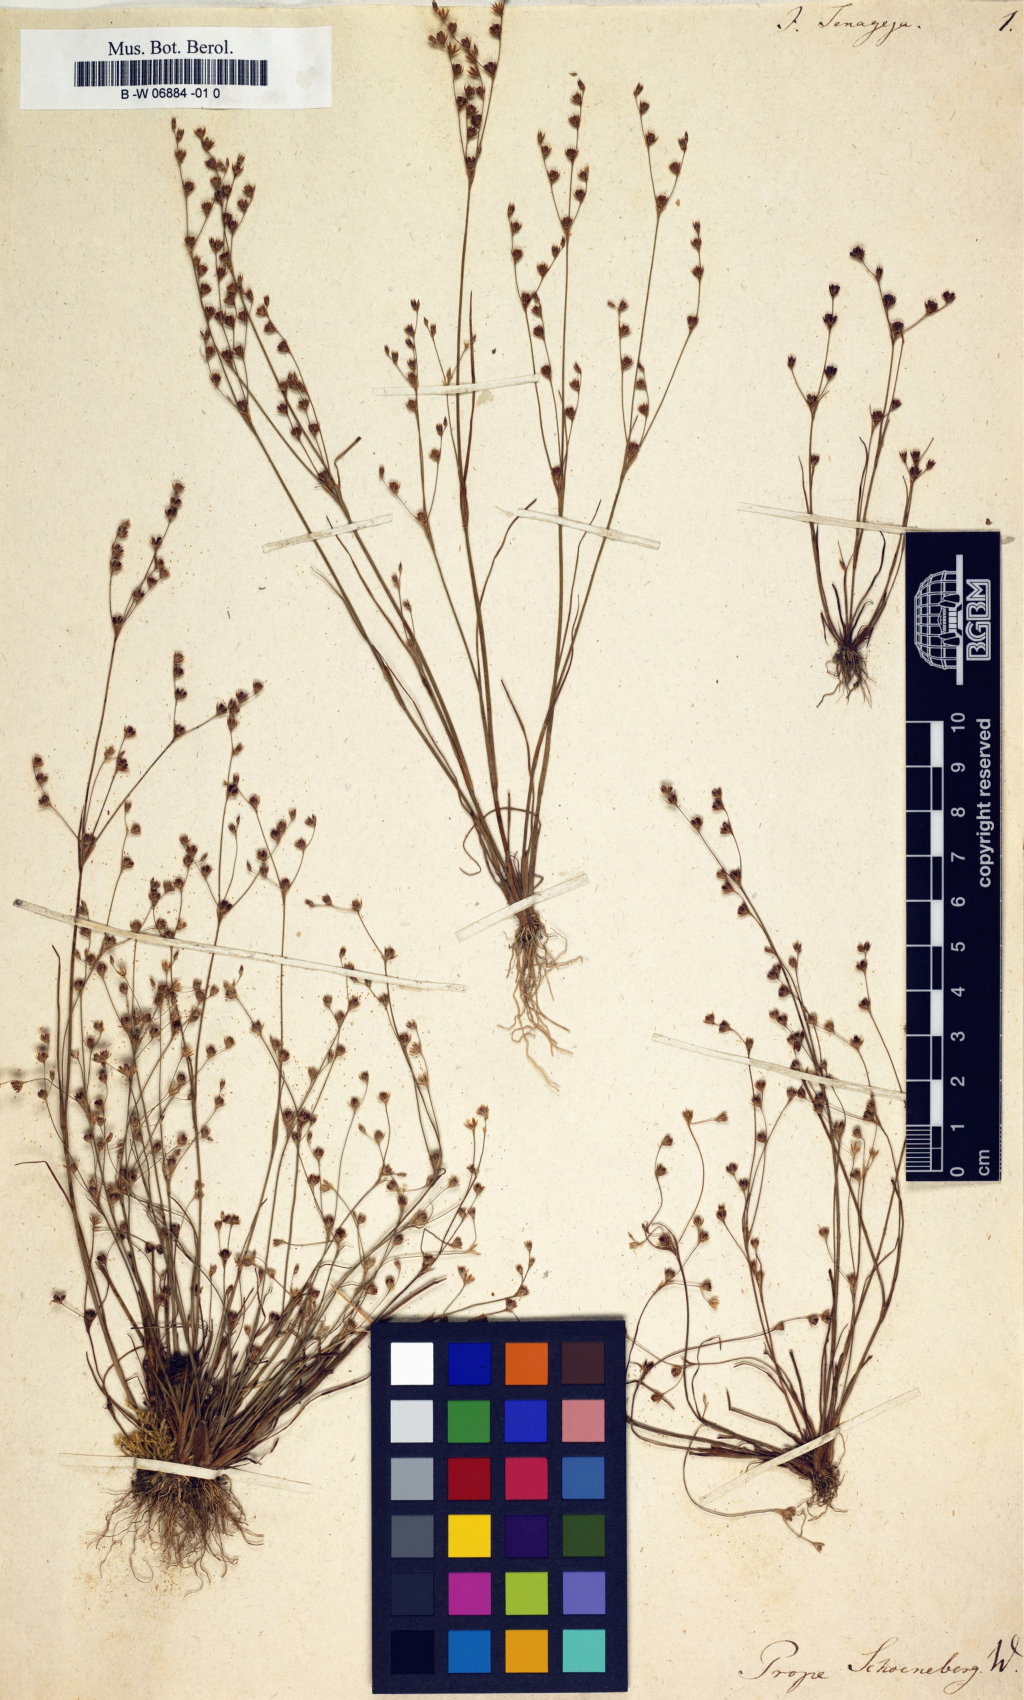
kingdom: Plantae
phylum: Tracheophyta
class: Liliopsida
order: Poales
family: Juncaceae
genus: Juncus
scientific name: Juncus
